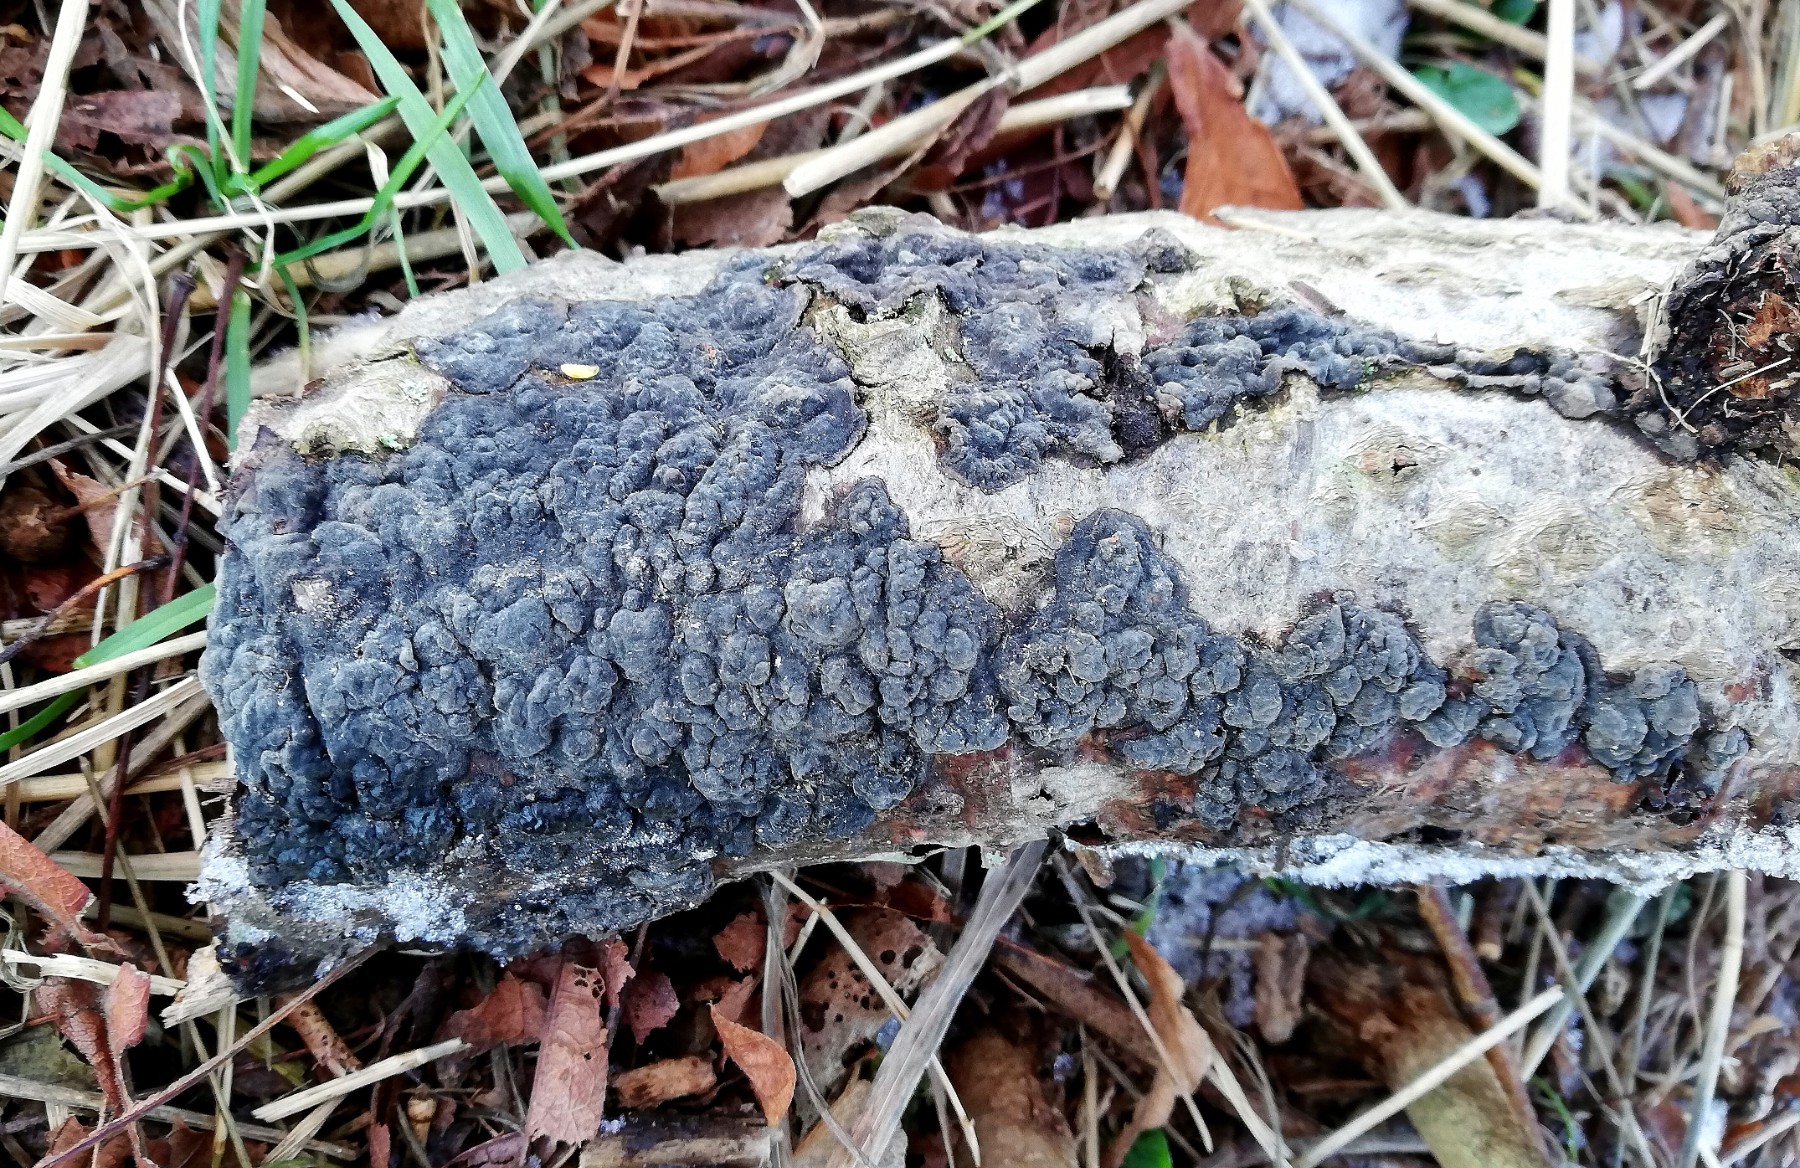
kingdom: Fungi
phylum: Basidiomycota
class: Agaricomycetes
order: Russulales
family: Peniophoraceae
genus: Peniophora
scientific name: Peniophora rufomarginata
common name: linde-voksskind
